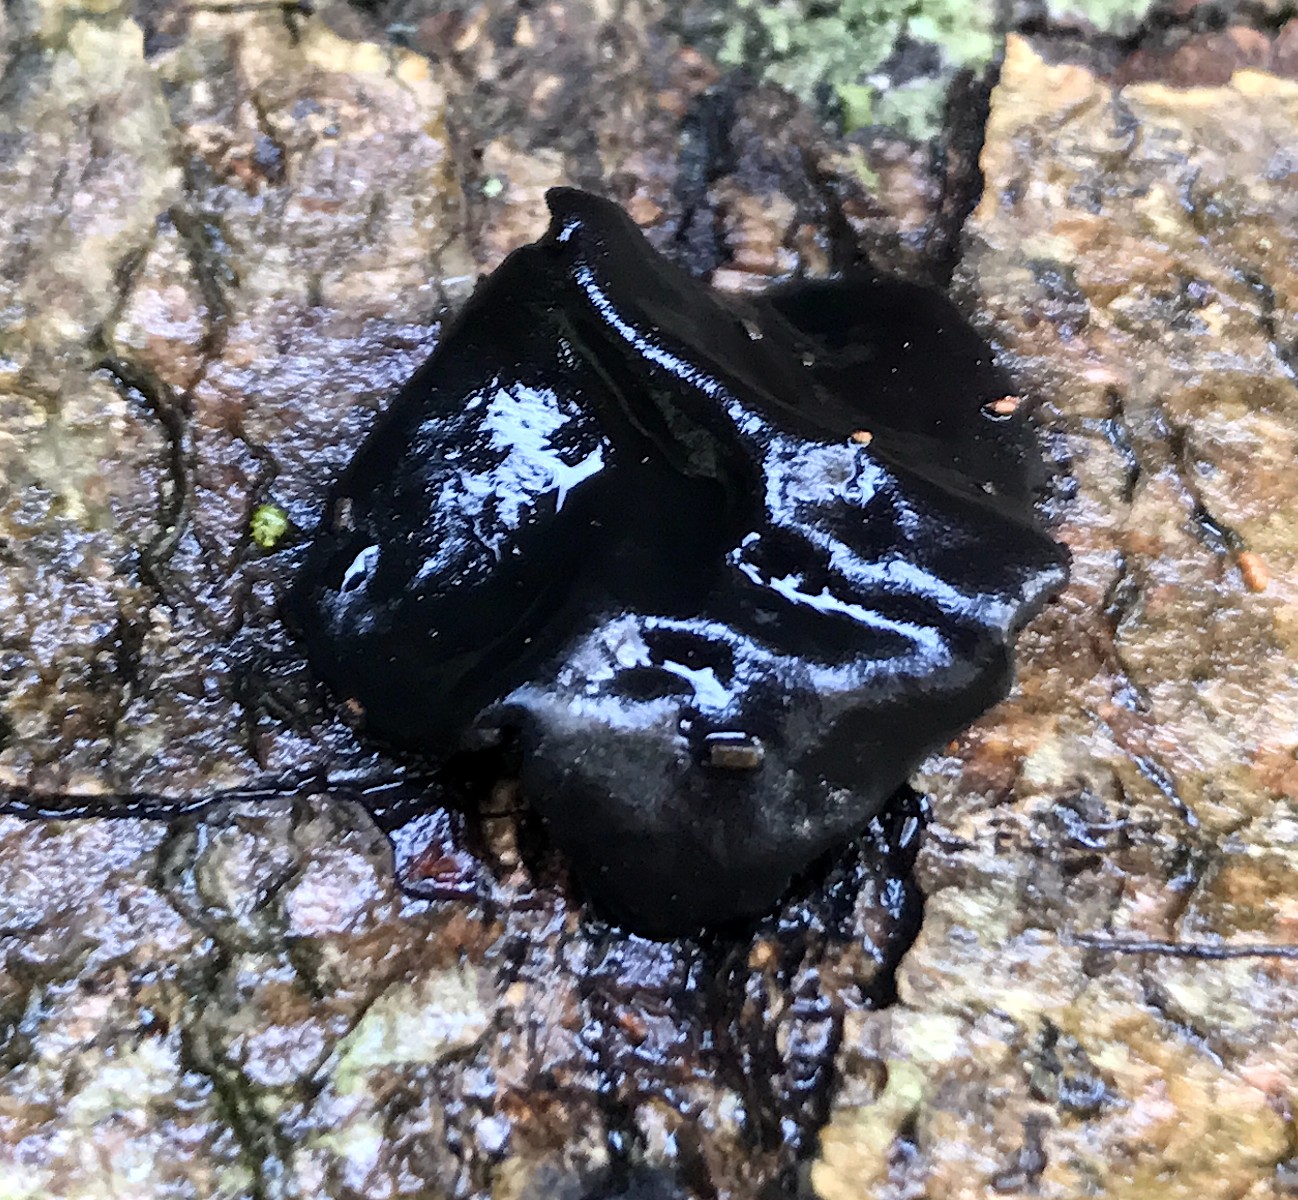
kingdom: Fungi
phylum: Basidiomycota
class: Tremellomycetes
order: Tremellales
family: Exidiaceae
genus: Exidia
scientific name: Exidia
